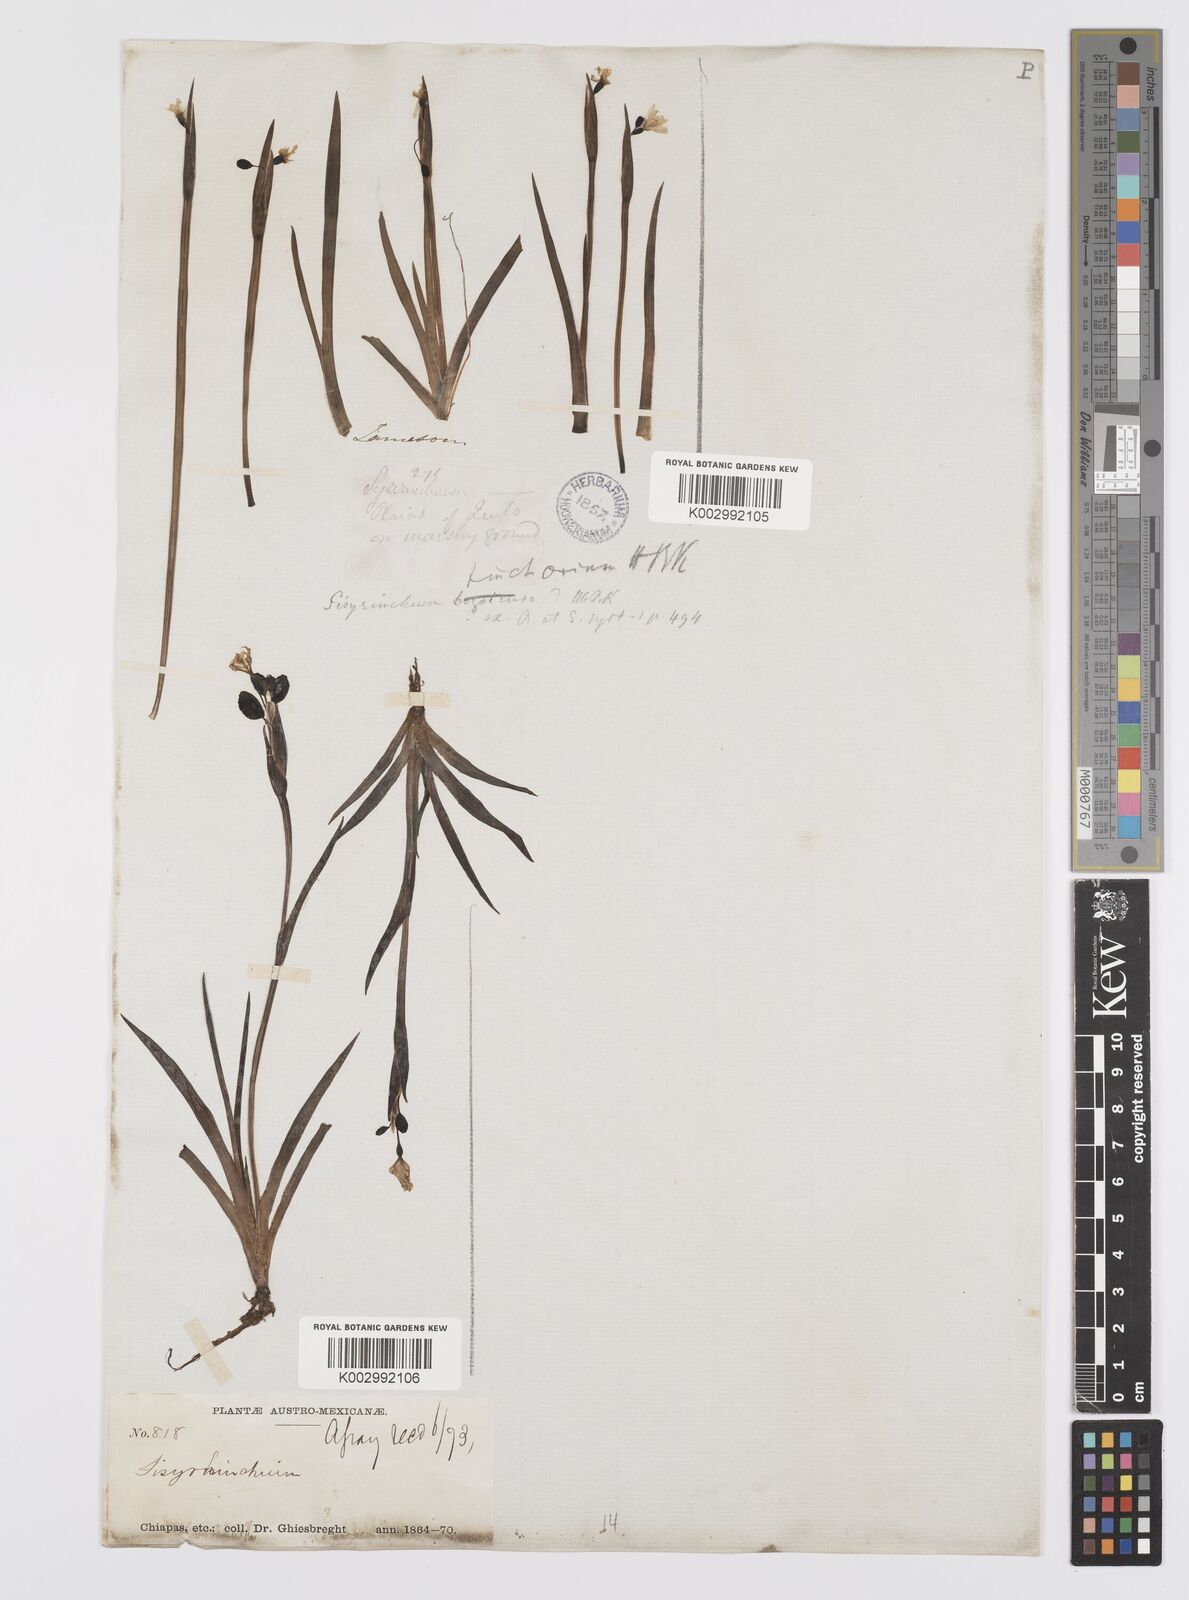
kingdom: Plantae
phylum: Tracheophyta
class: Liliopsida
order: Asparagales
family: Iridaceae
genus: Sisyrinchium
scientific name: Sisyrinchium tinctorium
